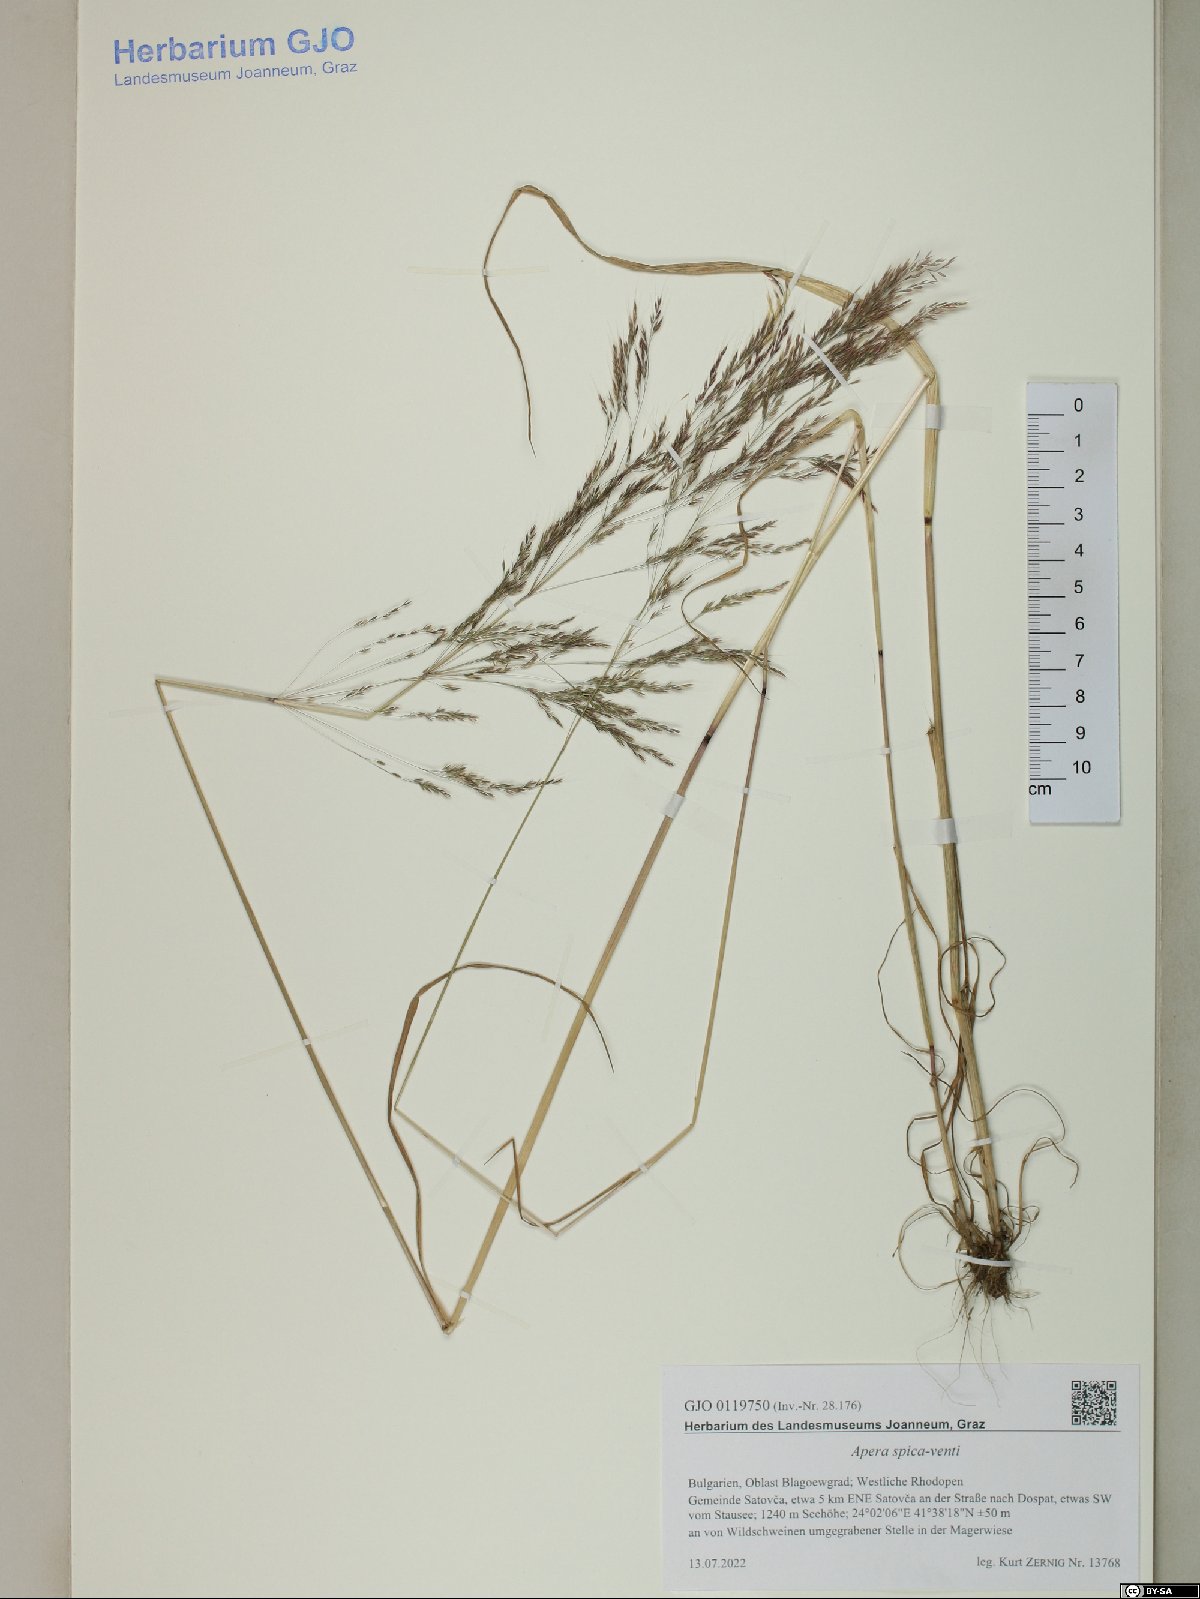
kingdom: Plantae
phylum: Tracheophyta
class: Liliopsida
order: Poales
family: Poaceae
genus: Apera
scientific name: Apera spica-venti
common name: Loose silky-bent
